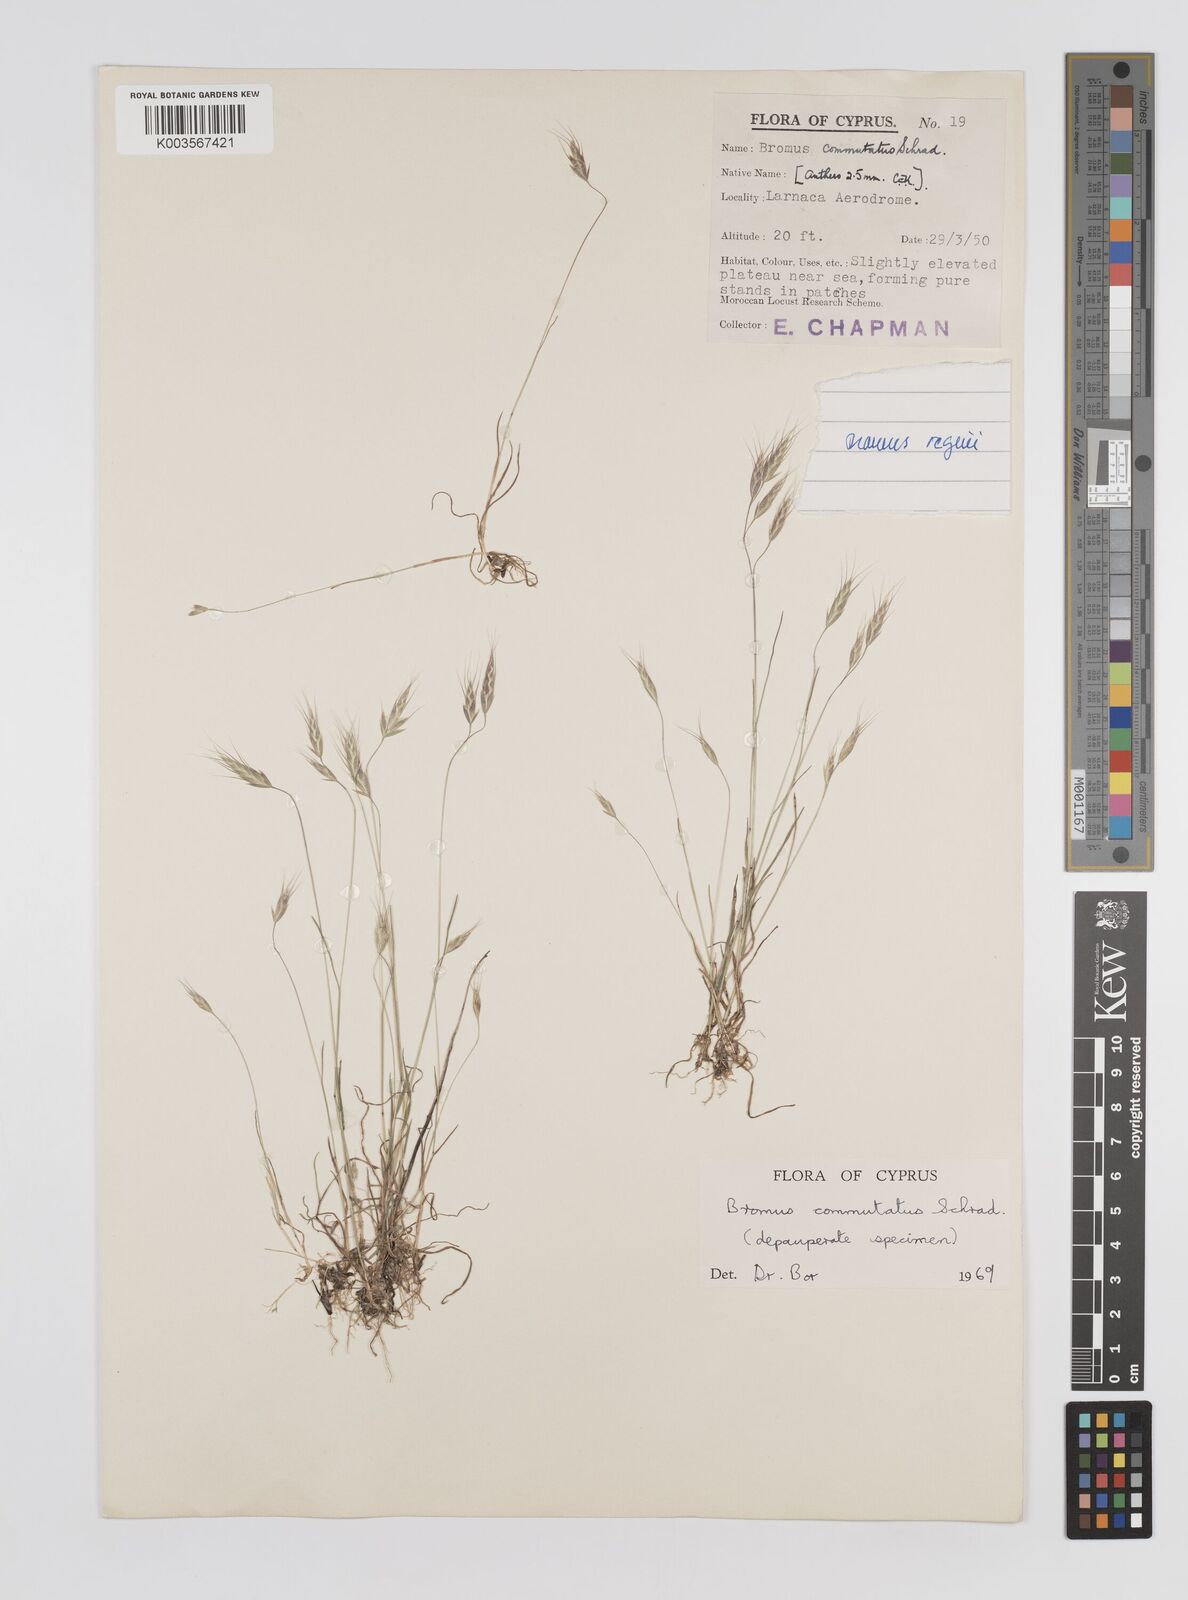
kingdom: Plantae
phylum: Tracheophyta
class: Liliopsida
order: Poales
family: Poaceae
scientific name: Poaceae
